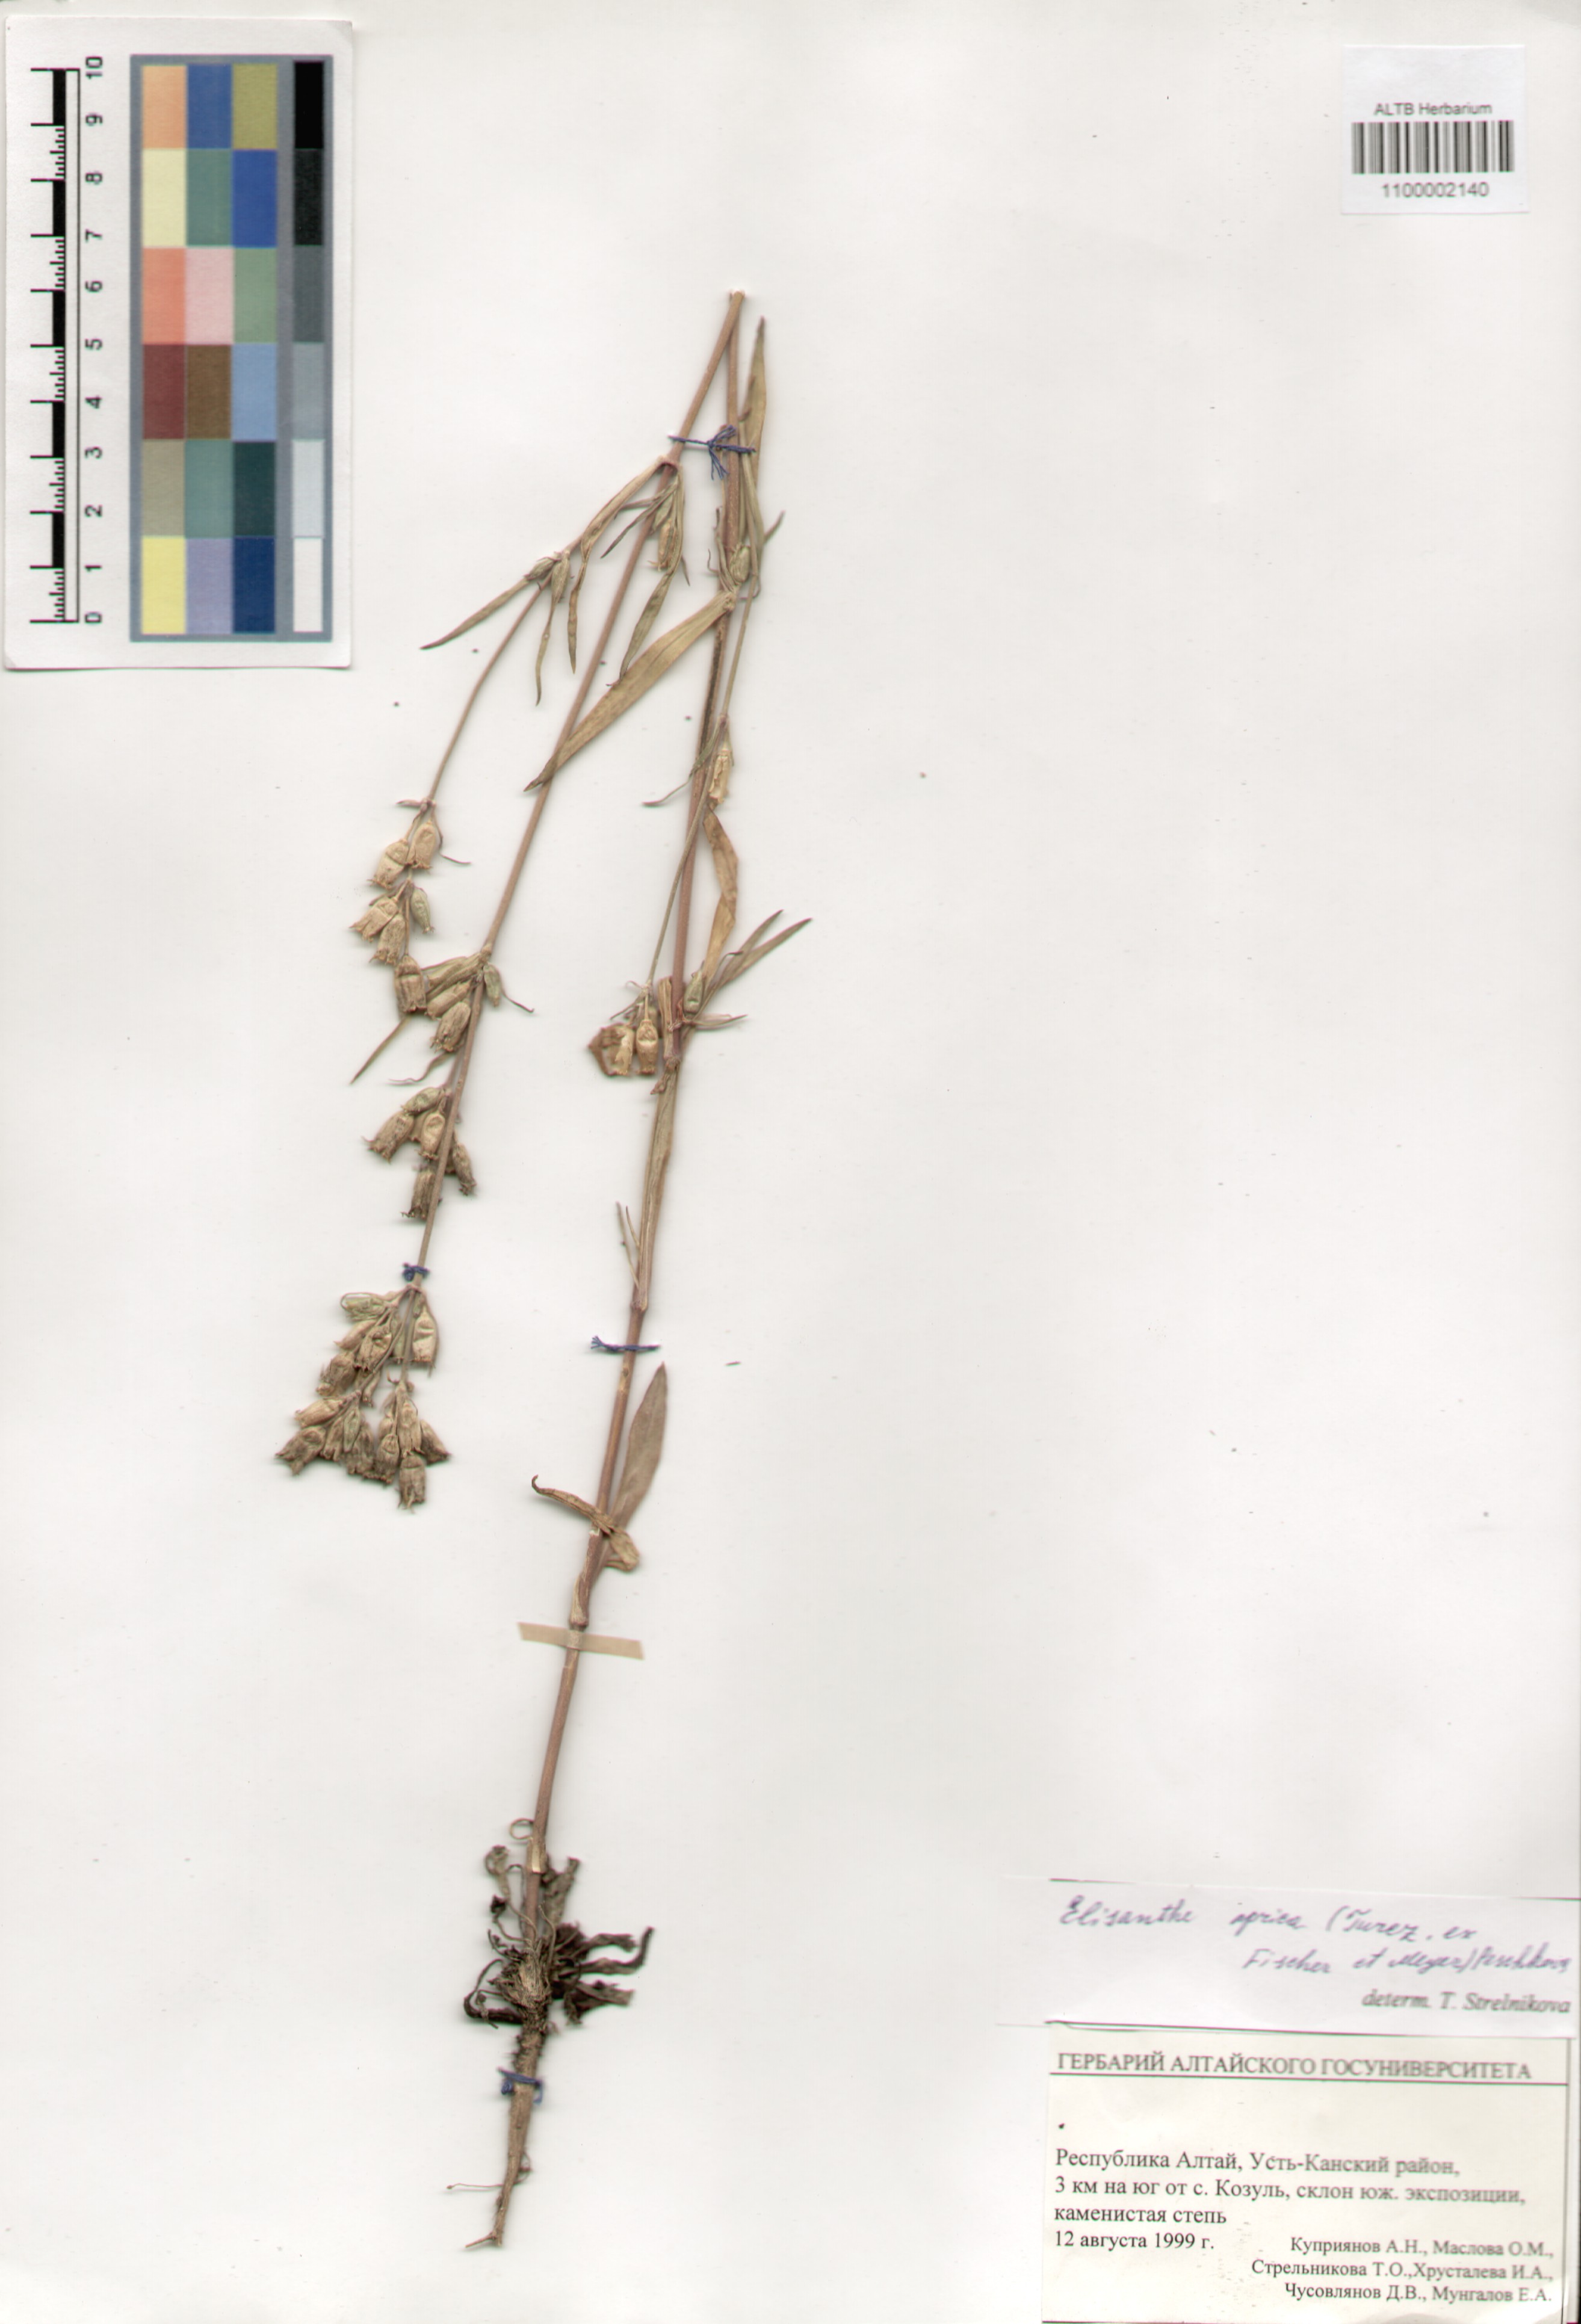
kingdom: Plantae
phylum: Tracheophyta
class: Magnoliopsida
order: Caryophyllales
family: Caryophyllaceae
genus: Silene
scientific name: Silene aprica
